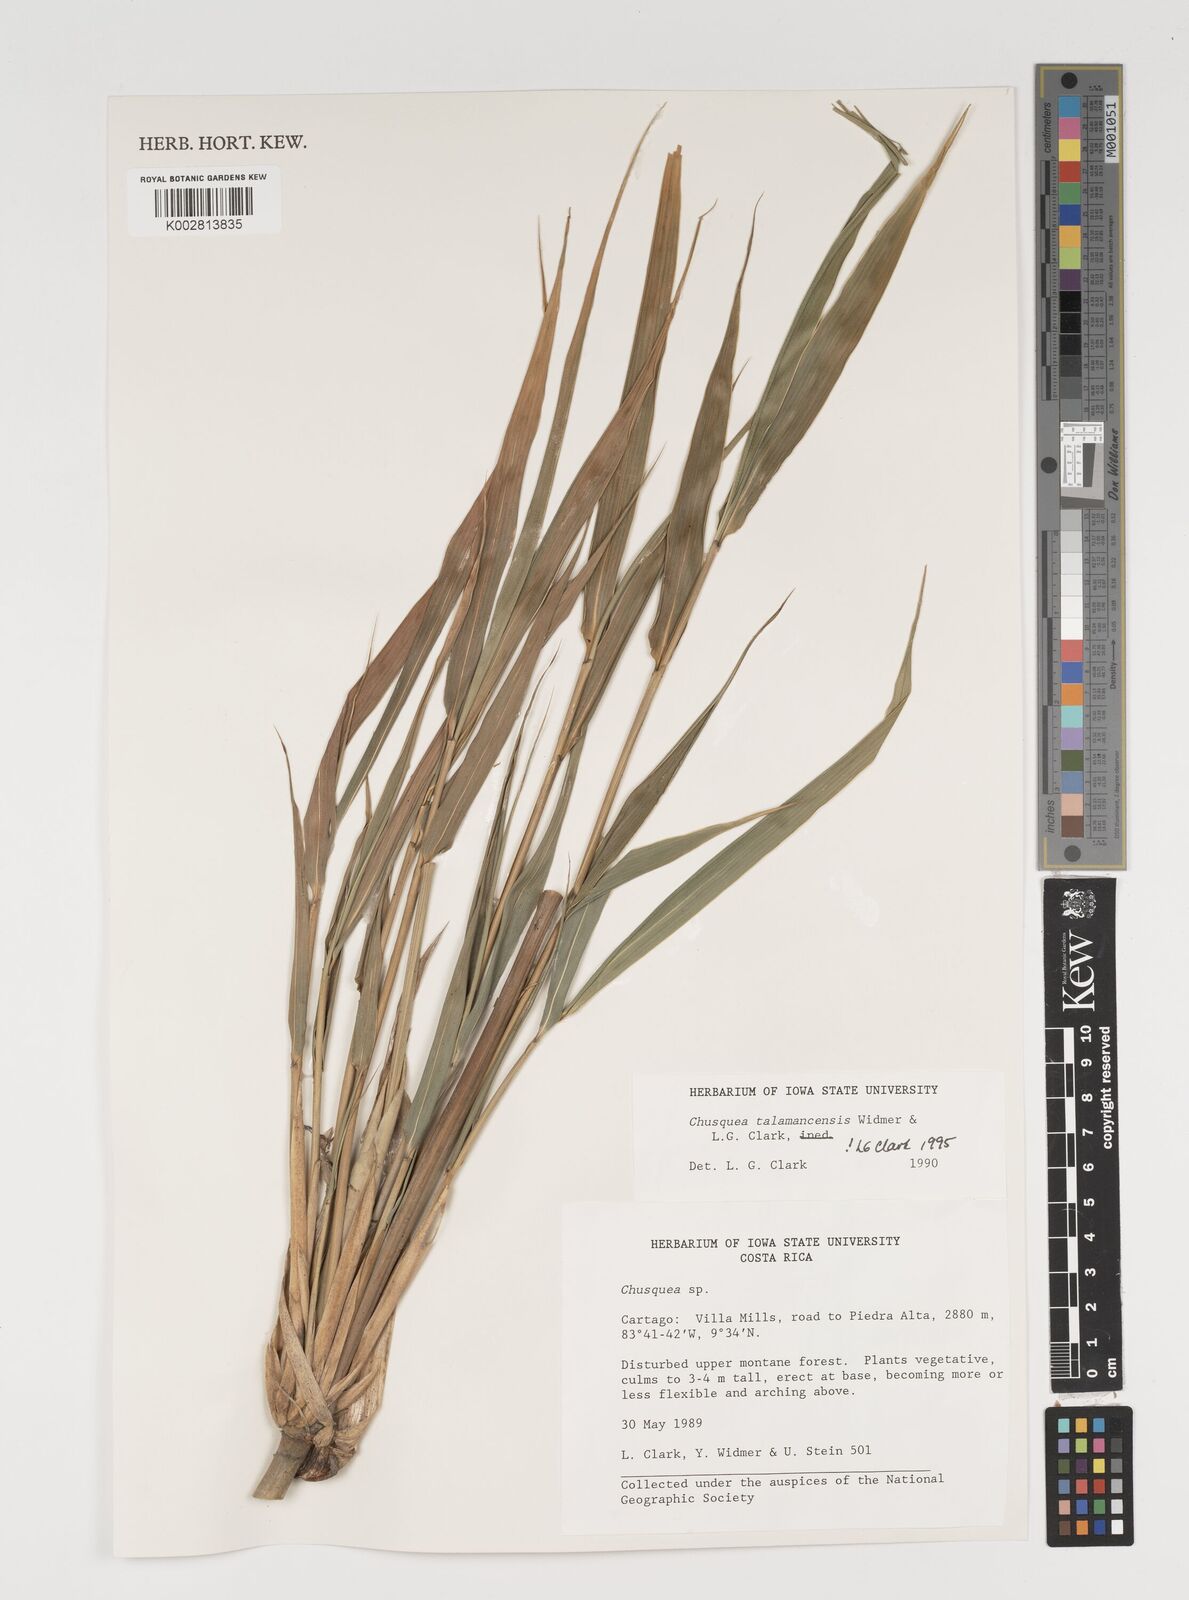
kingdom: Plantae
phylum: Tracheophyta
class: Liliopsida
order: Poales
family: Poaceae
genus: Chusquea
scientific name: Chusquea talamancensis
